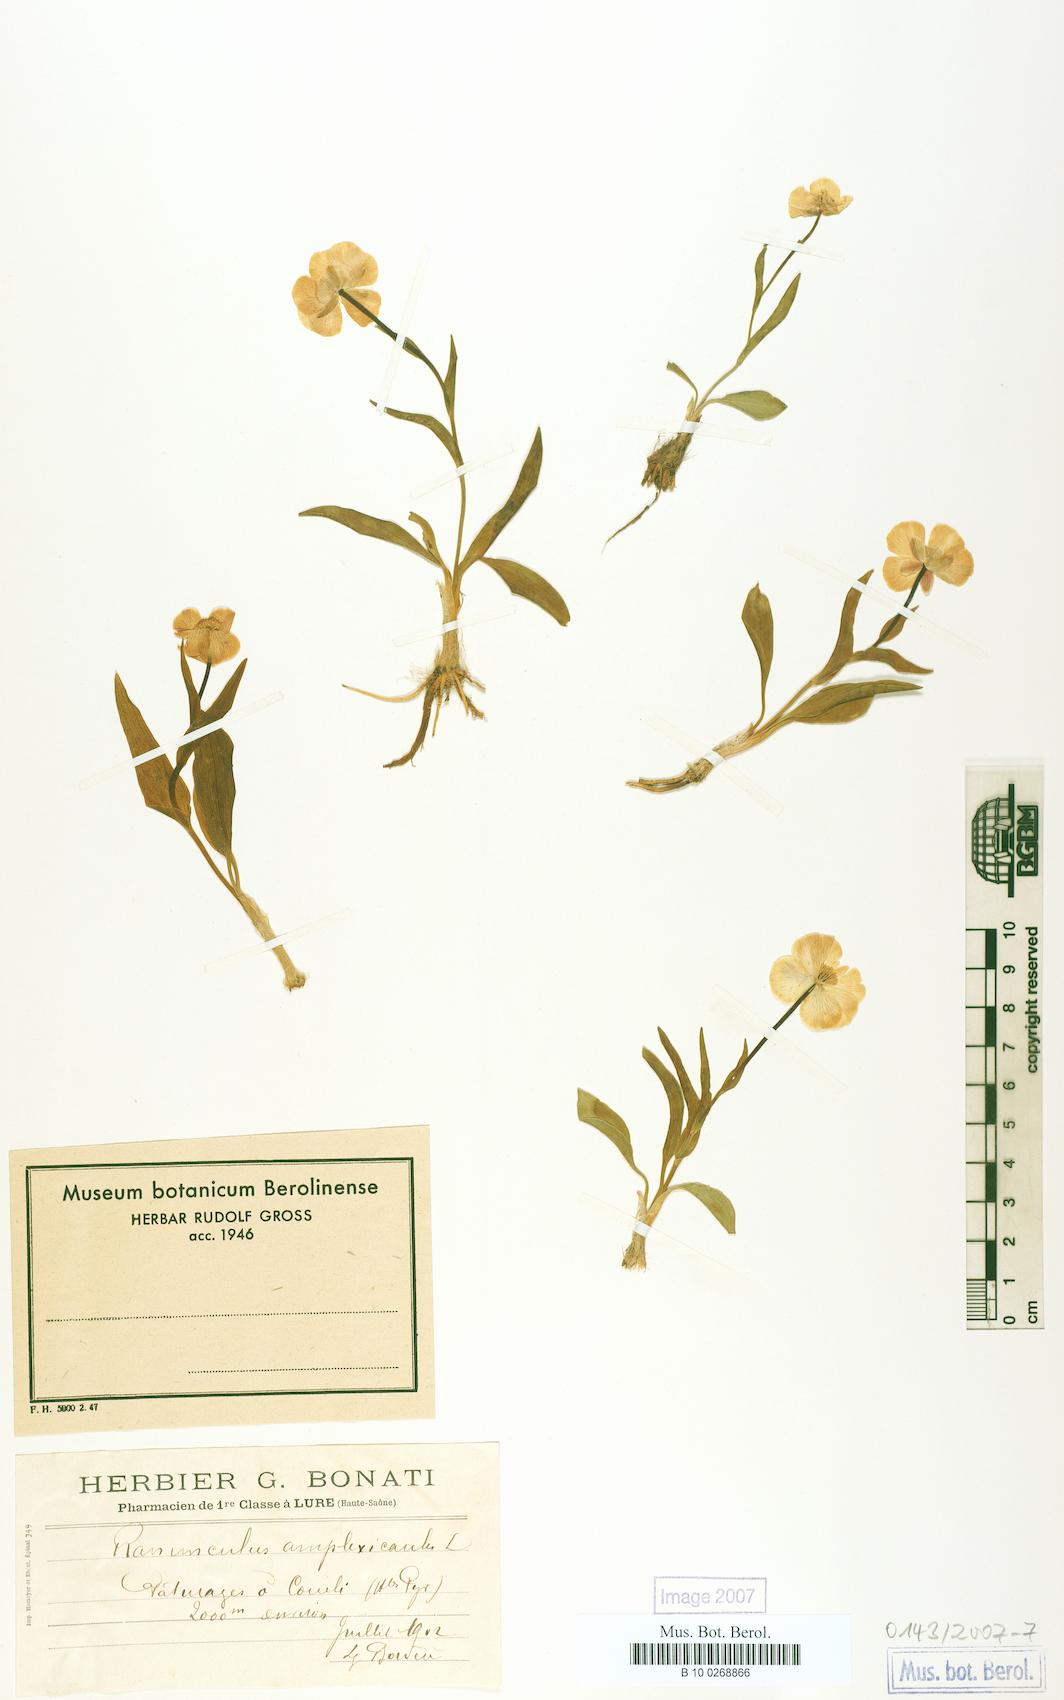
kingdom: Plantae
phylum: Tracheophyta
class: Magnoliopsida
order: Ranunculales
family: Ranunculaceae
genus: Ranunculus
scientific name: Ranunculus amplexicaulis
